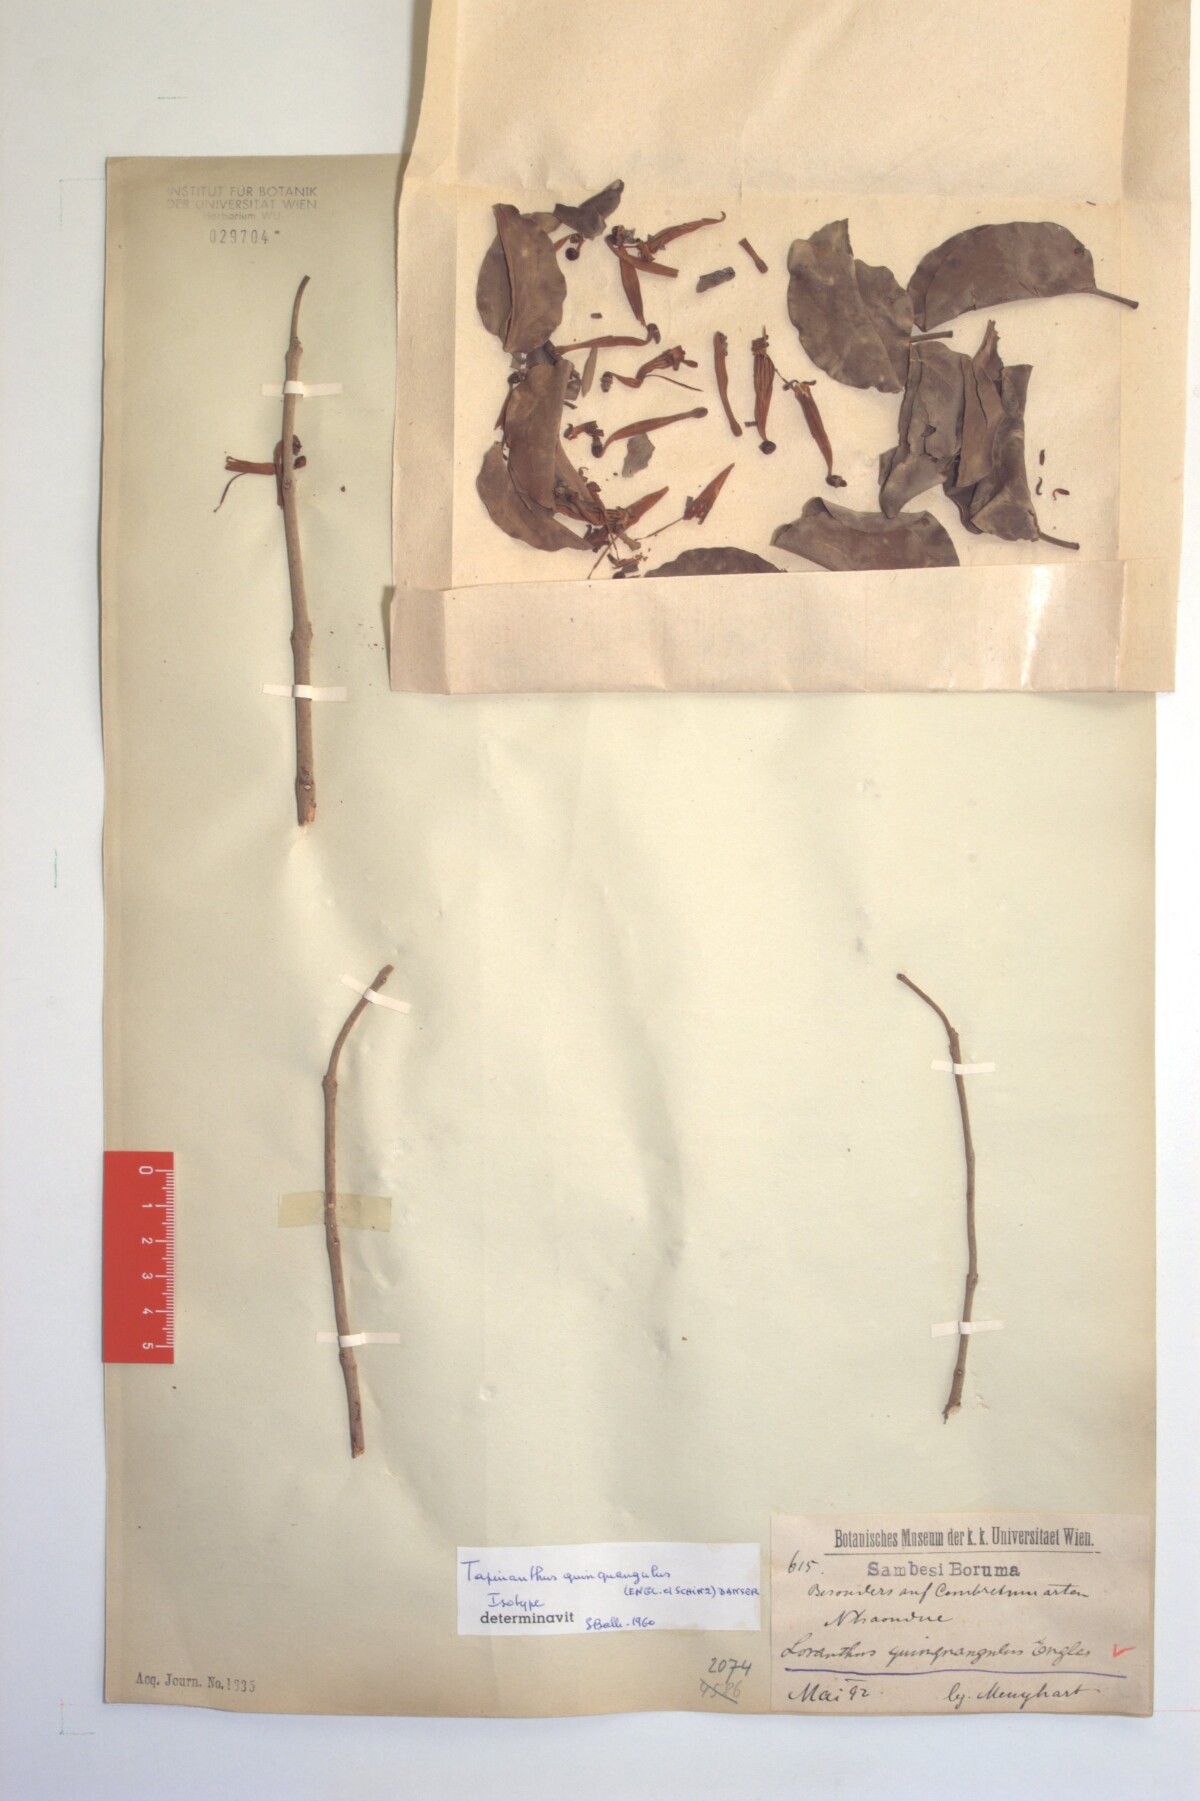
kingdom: Plantae
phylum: Tracheophyta
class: Magnoliopsida
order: Santalales
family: Loranthaceae
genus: Loranthus
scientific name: Loranthus quinquangulus
